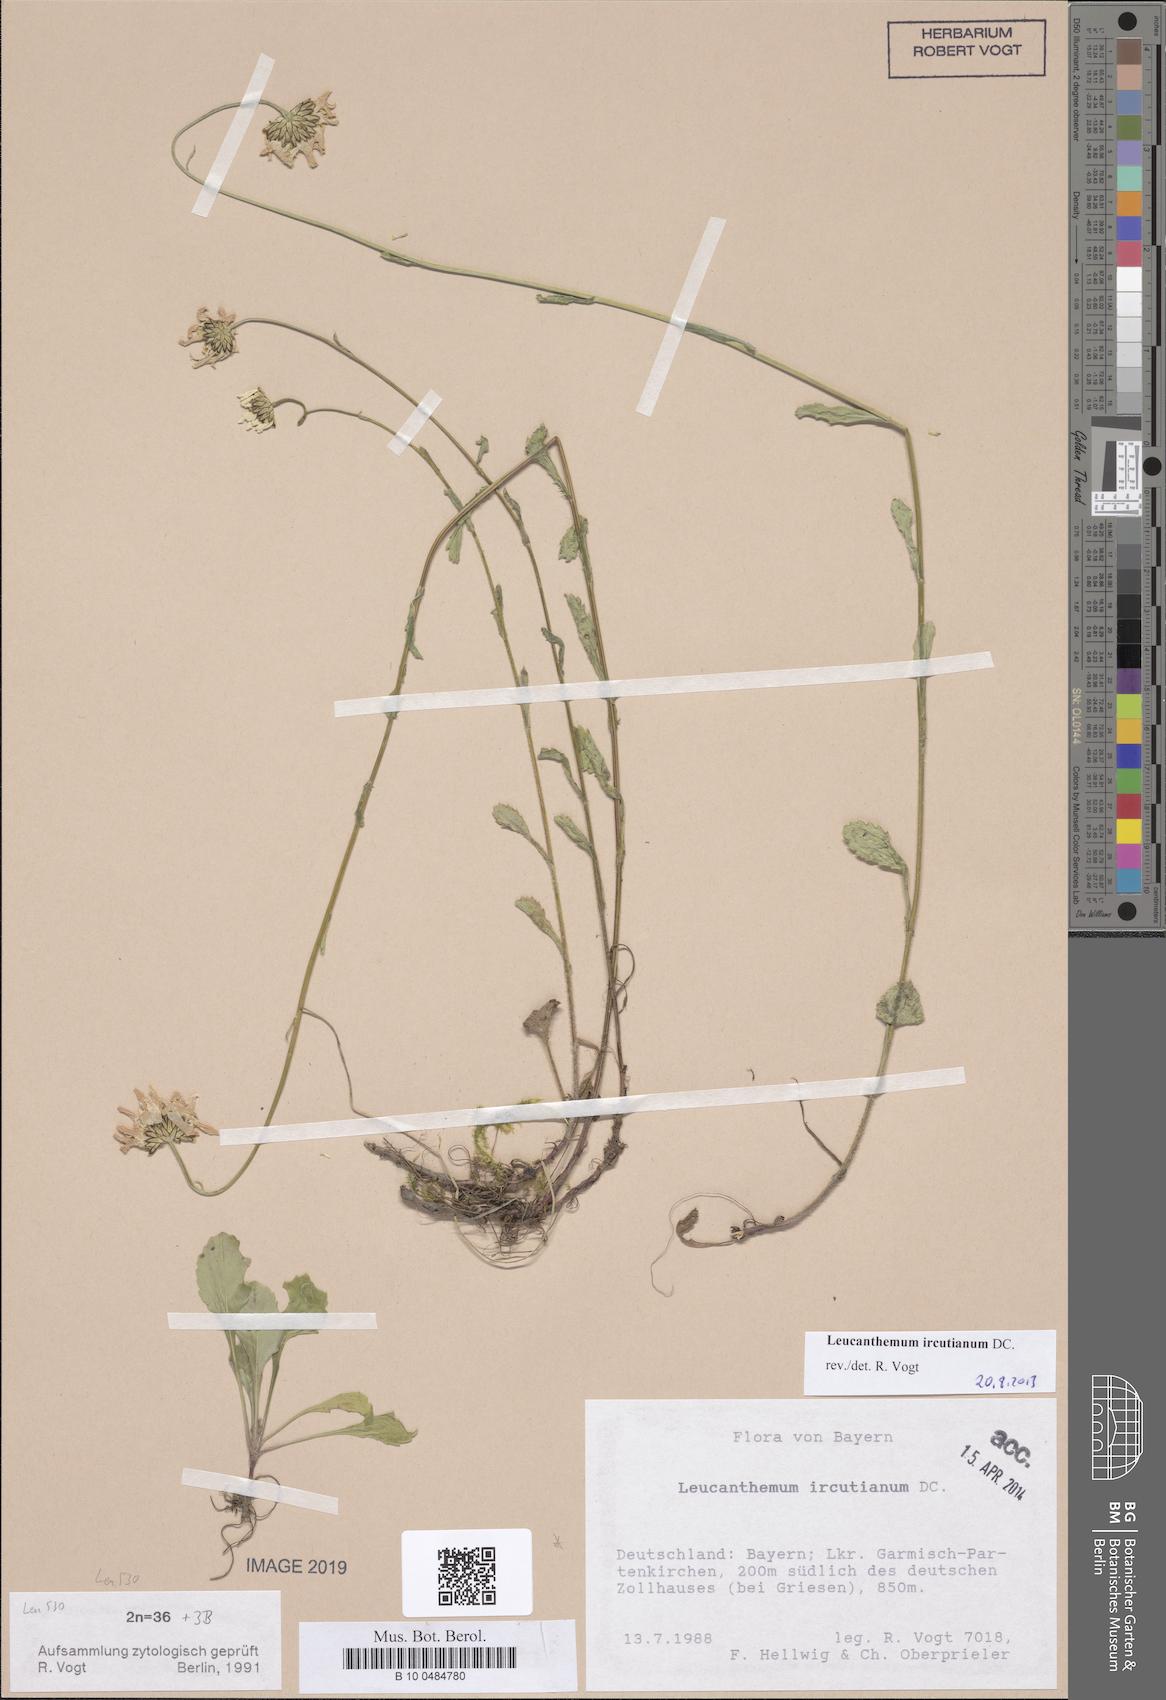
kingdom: Plantae
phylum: Tracheophyta
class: Magnoliopsida
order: Asterales
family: Asteraceae
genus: Leucanthemum
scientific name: Leucanthemum ircutianum
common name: Daisy
